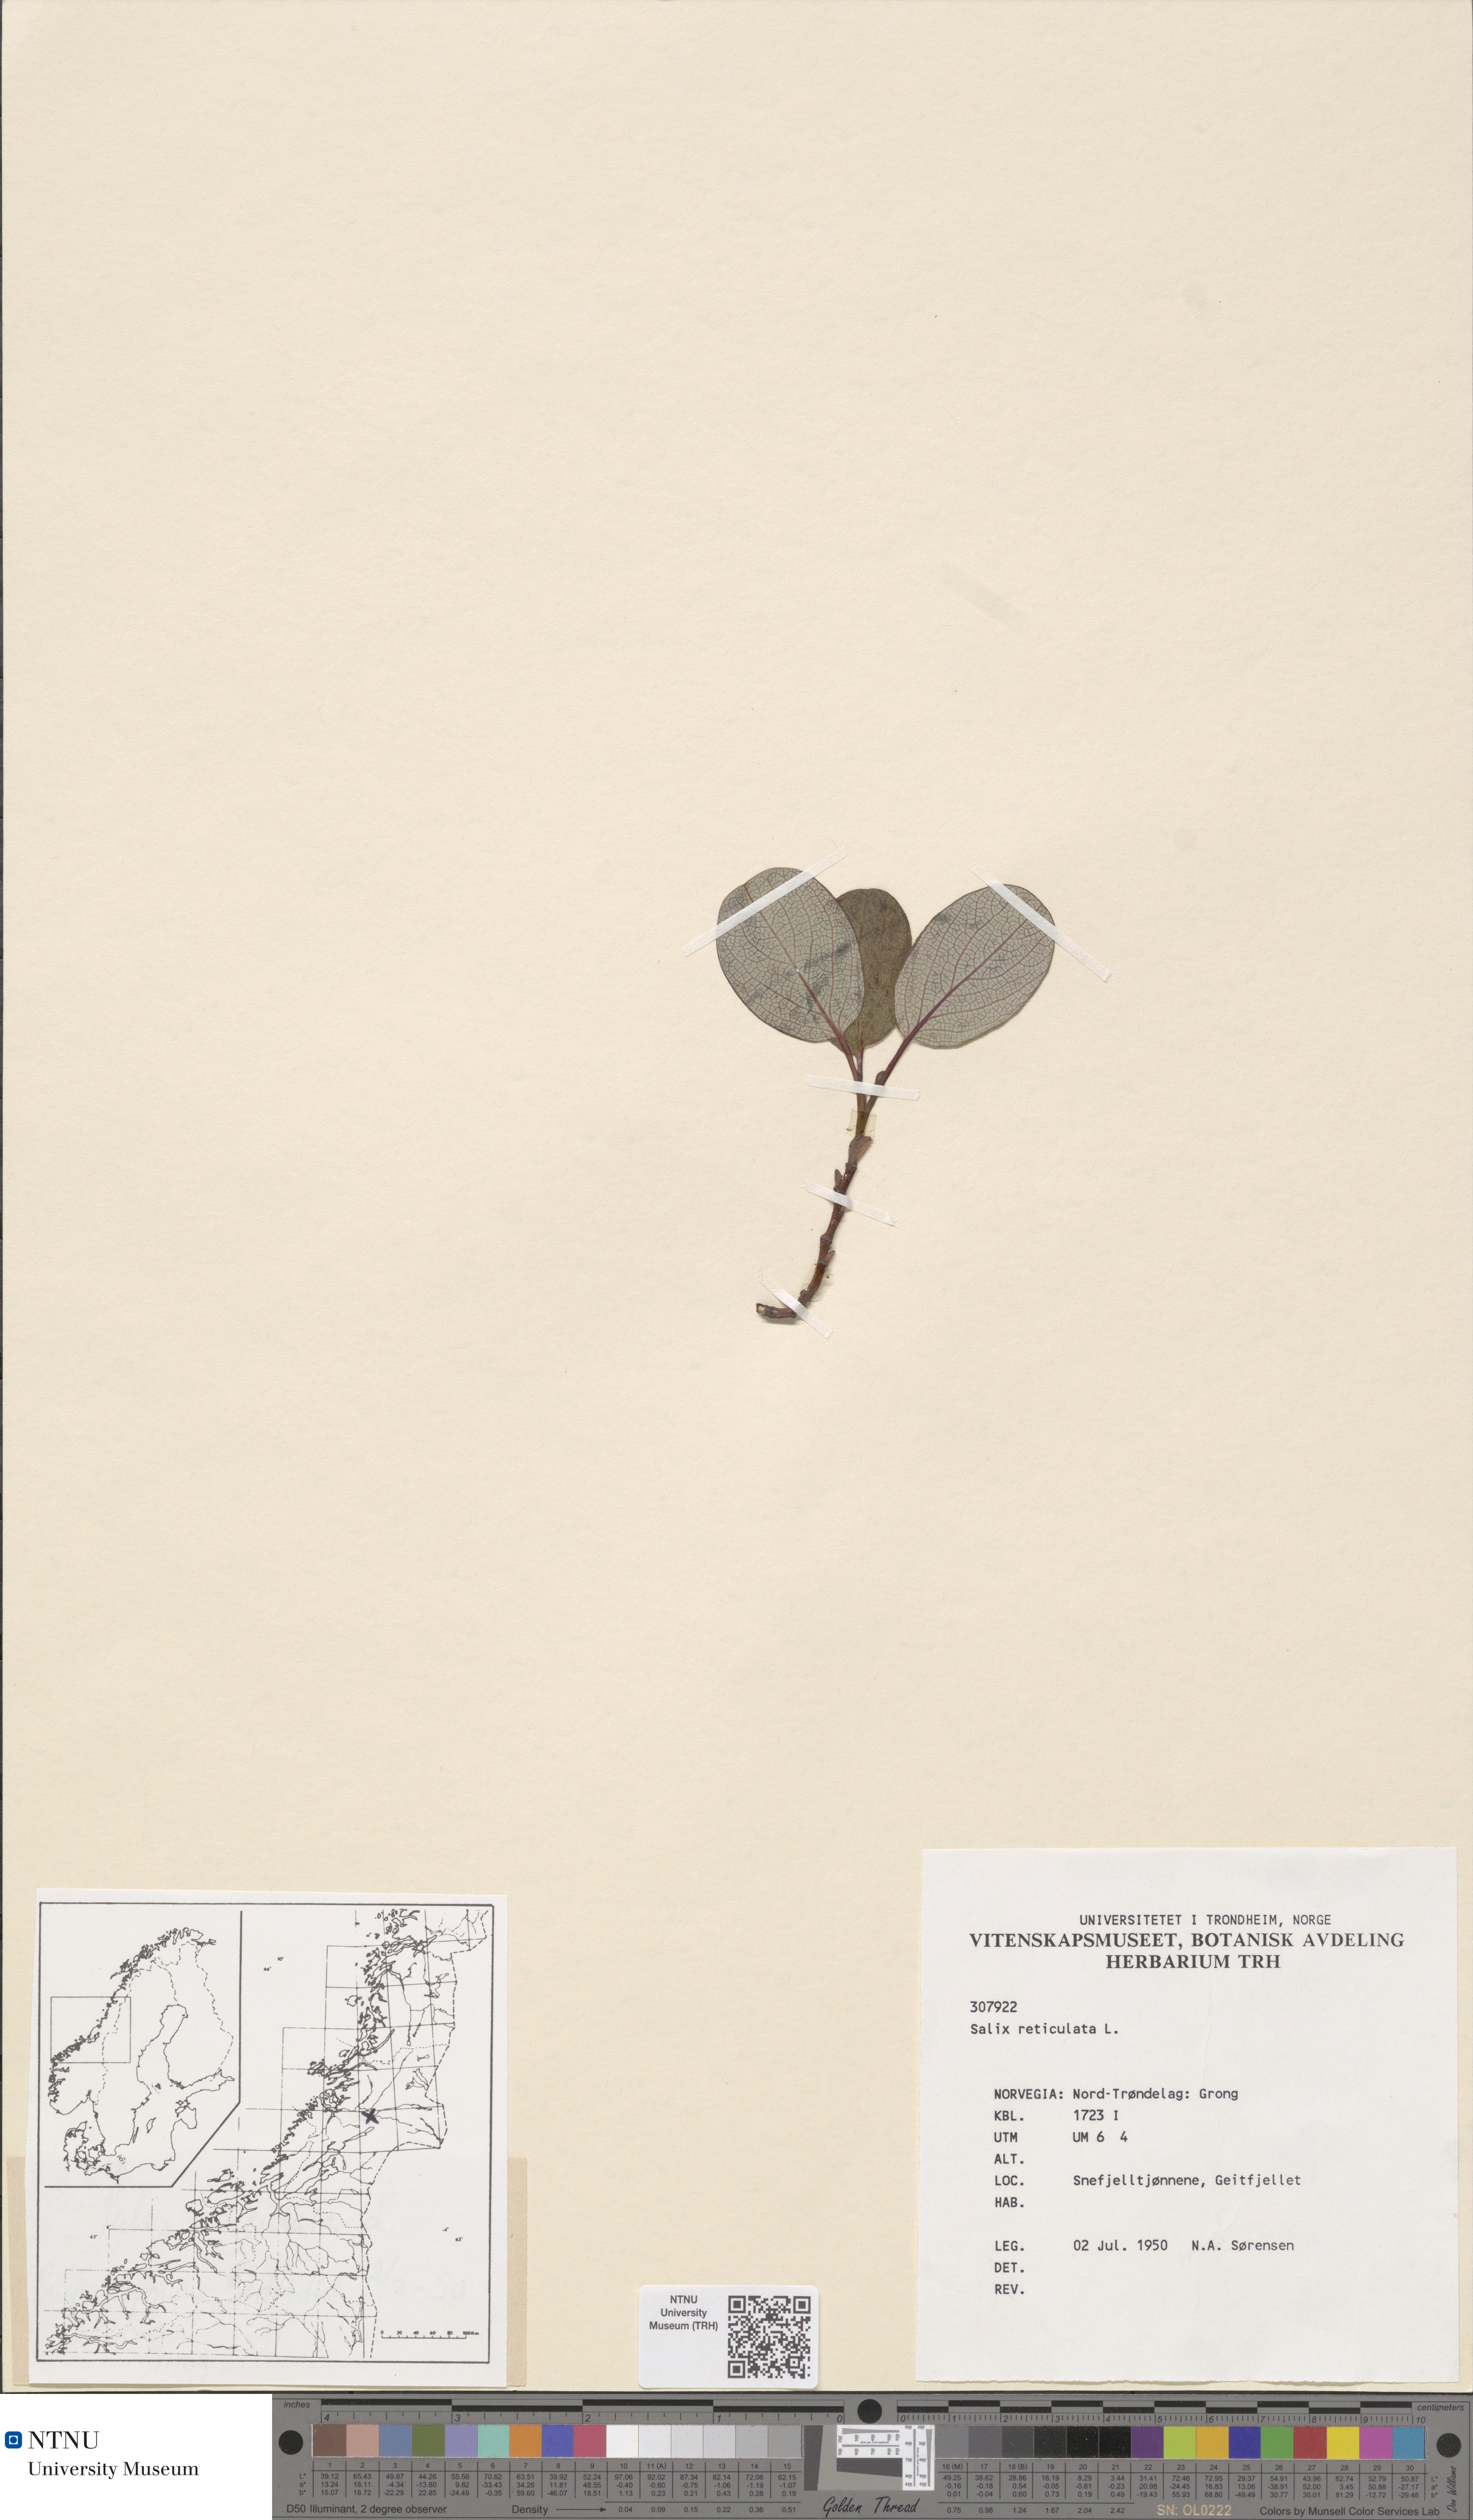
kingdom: Plantae
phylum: Tracheophyta
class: Magnoliopsida
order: Malpighiales
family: Salicaceae
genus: Salix
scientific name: Salix reticulata
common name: Net-leaved willow
